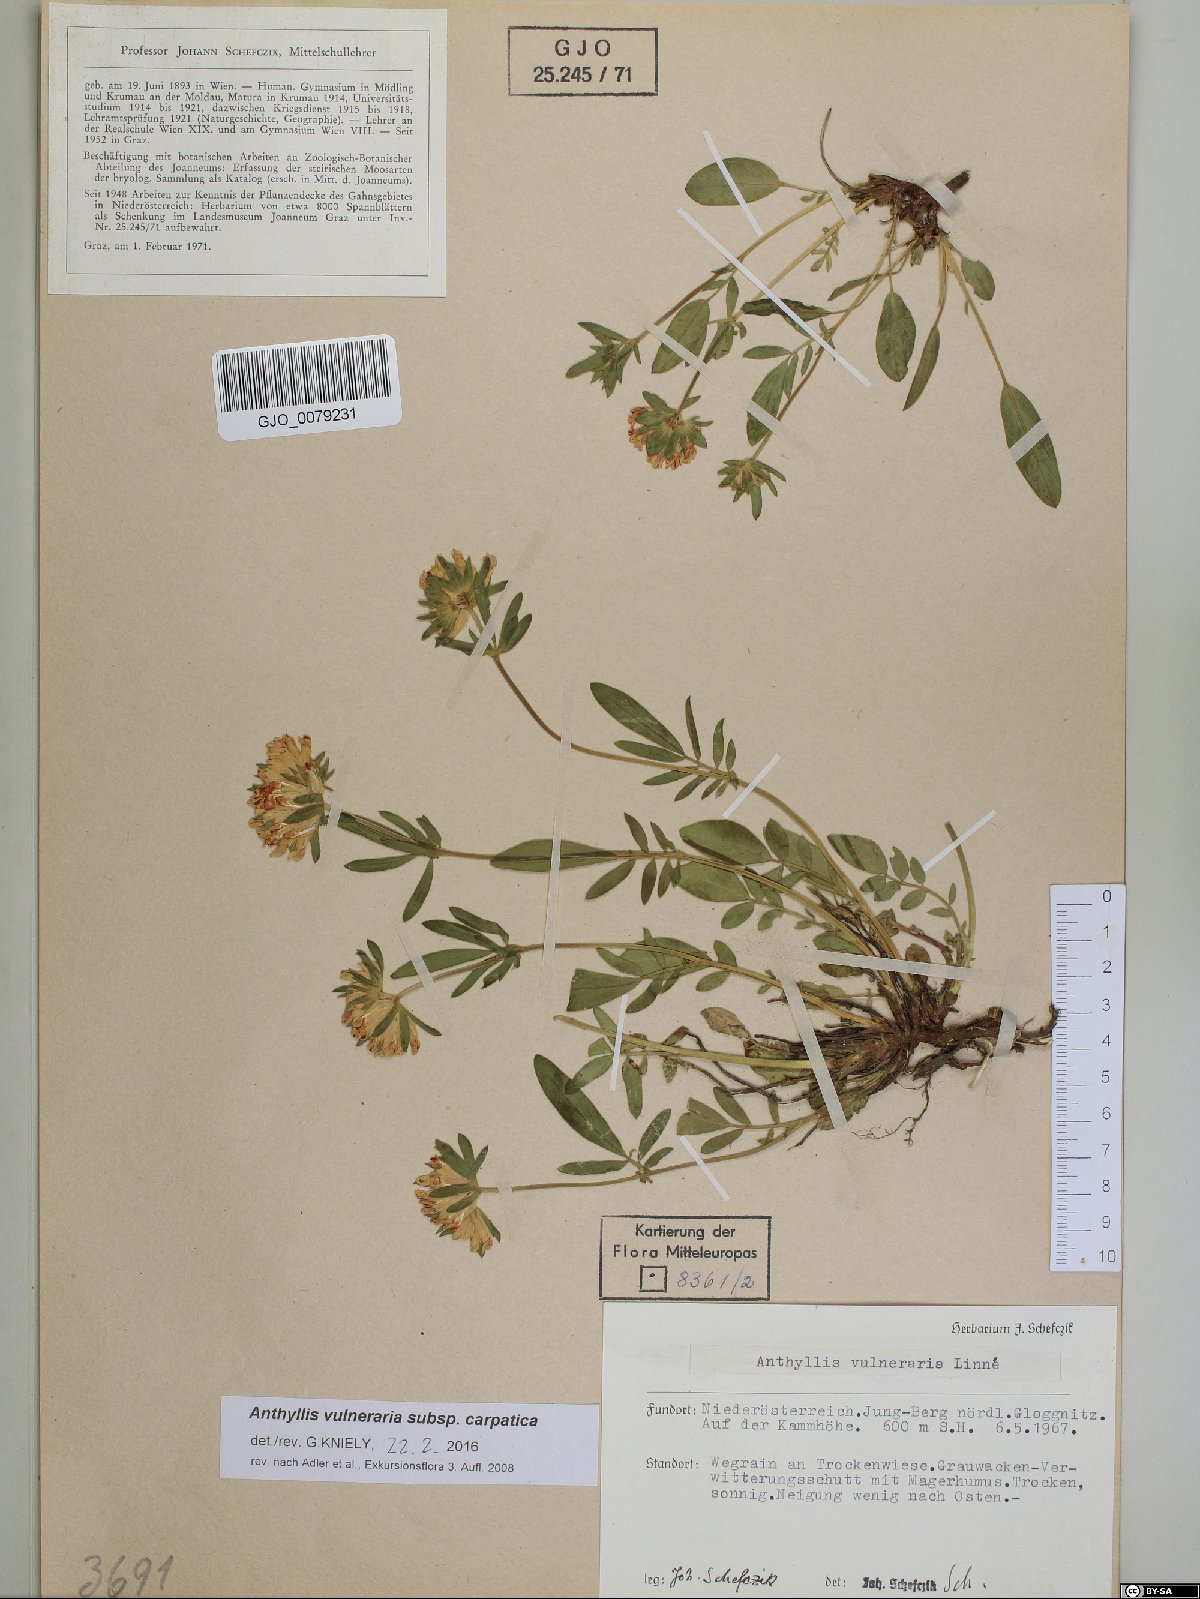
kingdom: Plantae
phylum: Tracheophyta
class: Magnoliopsida
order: Fabales
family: Fabaceae
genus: Anthyllis
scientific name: Anthyllis vulneraria
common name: Kidney vetch
